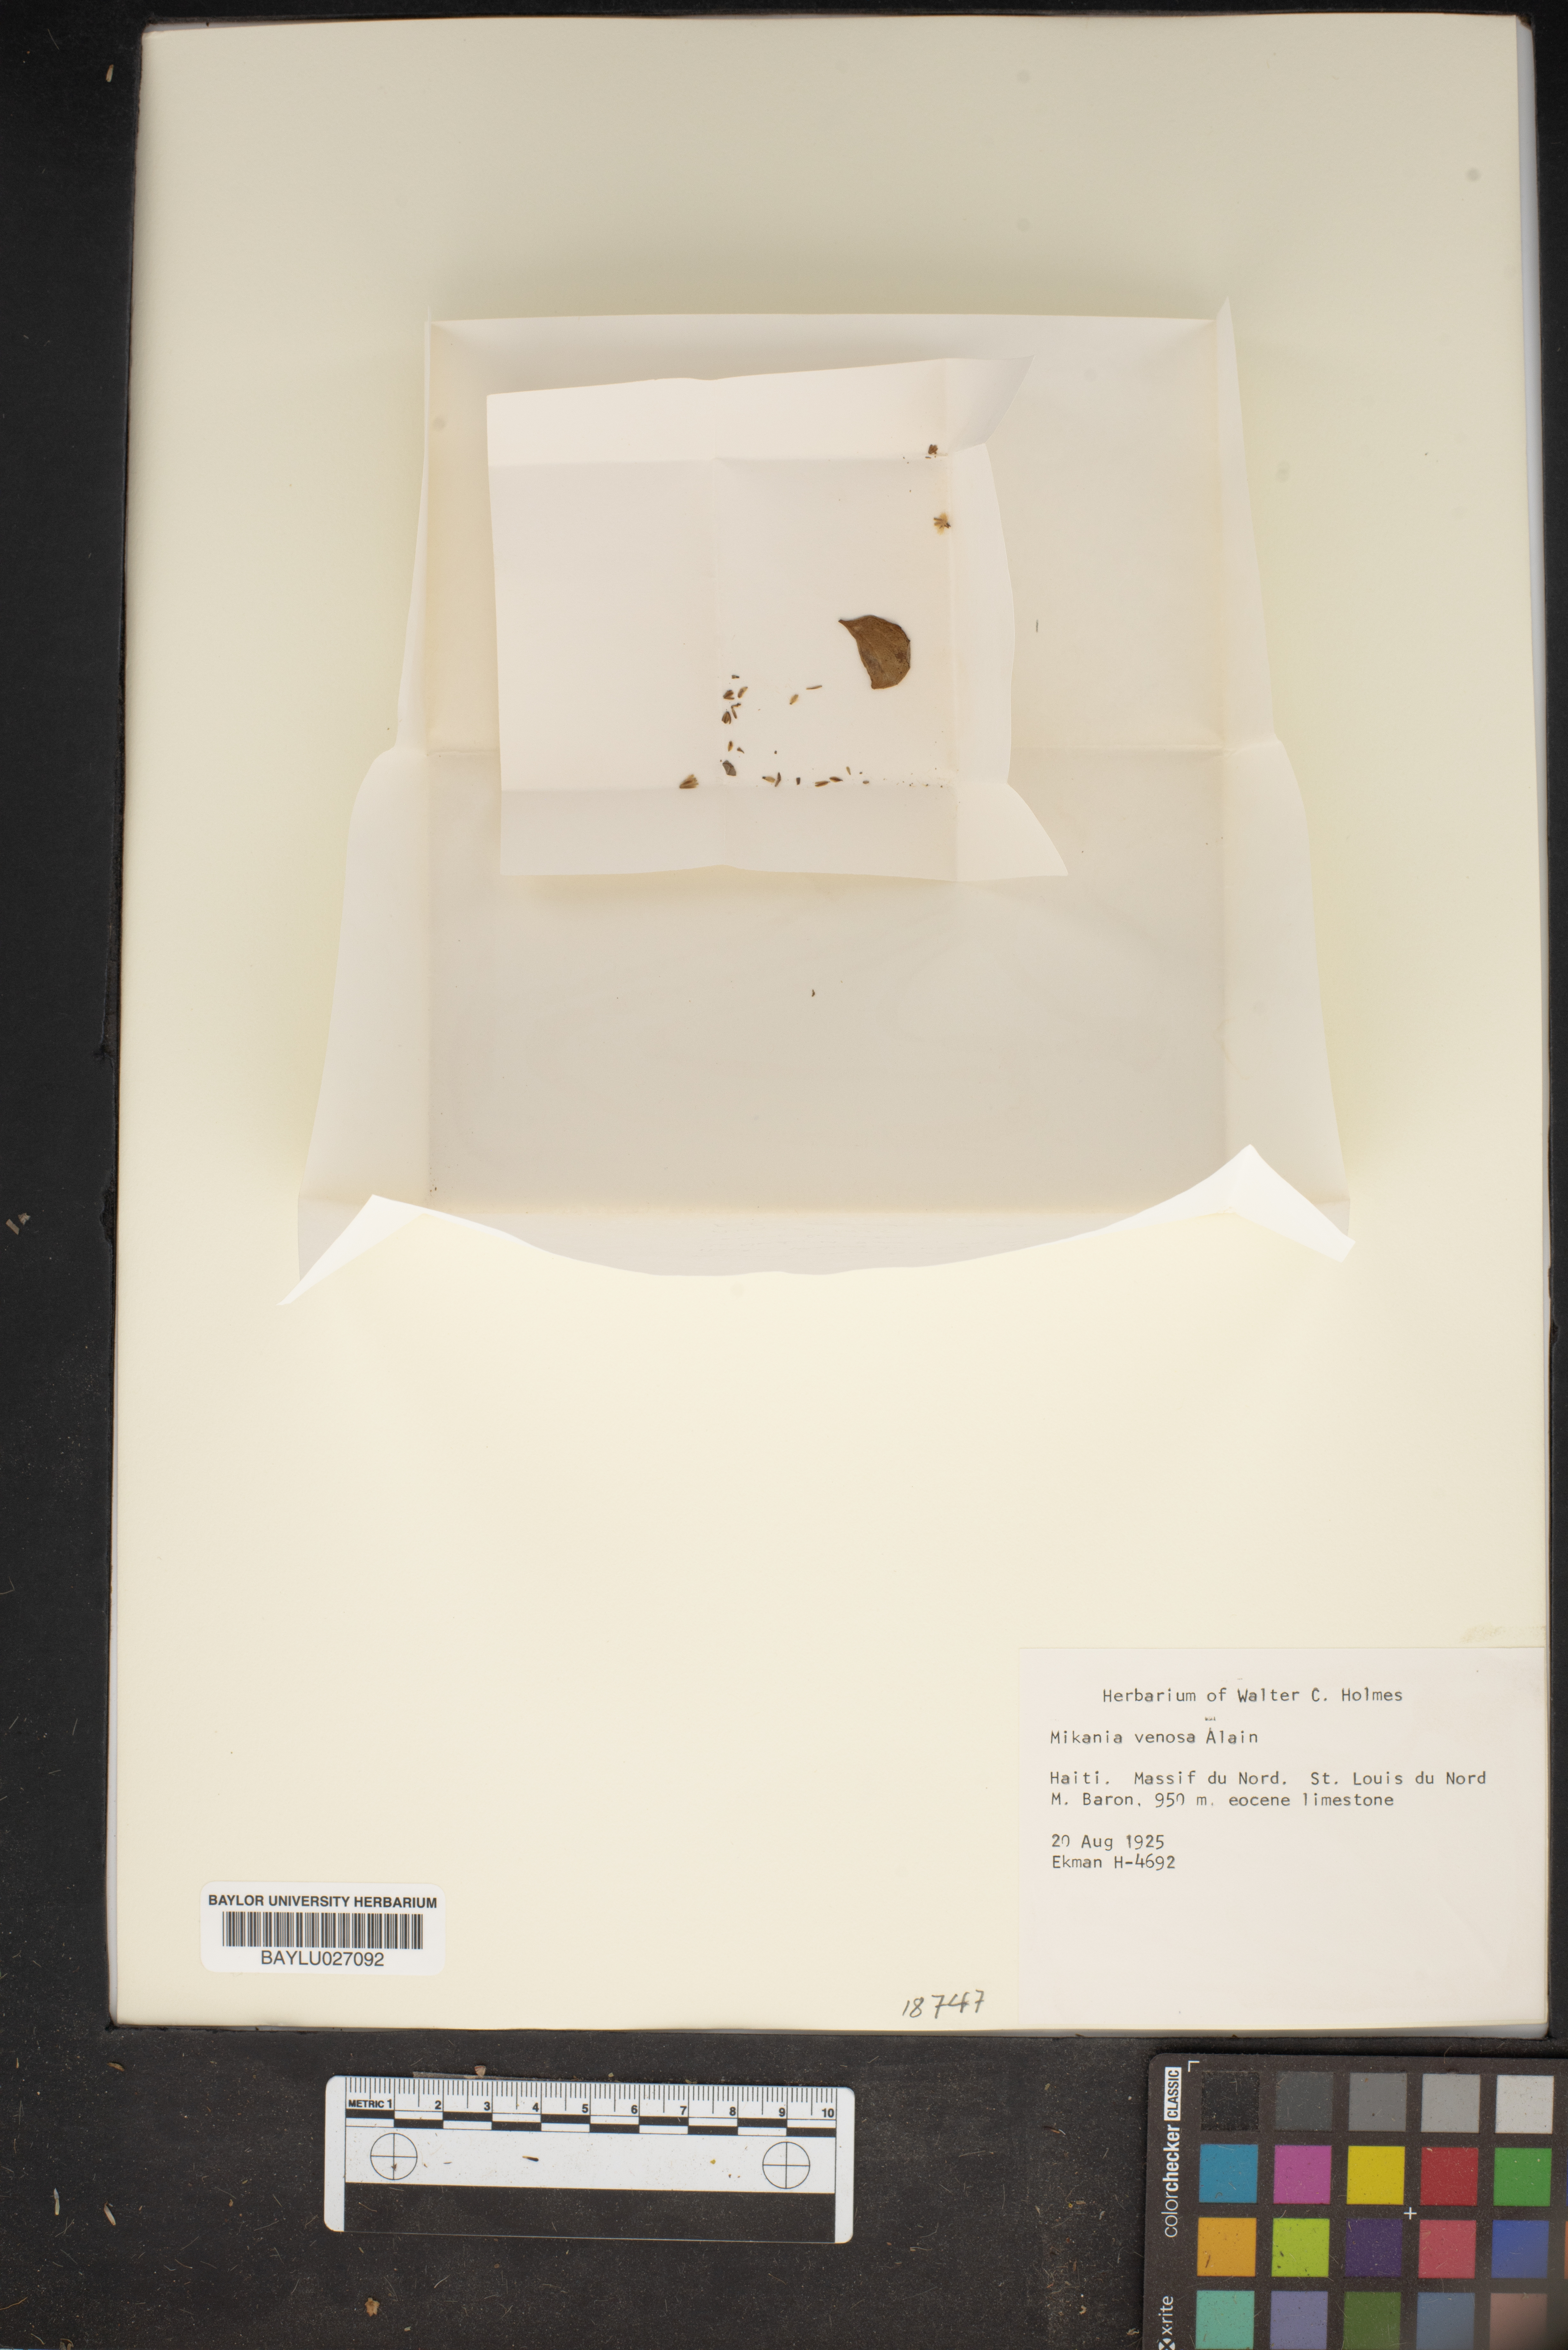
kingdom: Plantae
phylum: Tracheophyta
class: Magnoliopsida
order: Asterales
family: Asteraceae
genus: Mikania
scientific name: Mikania venosa
